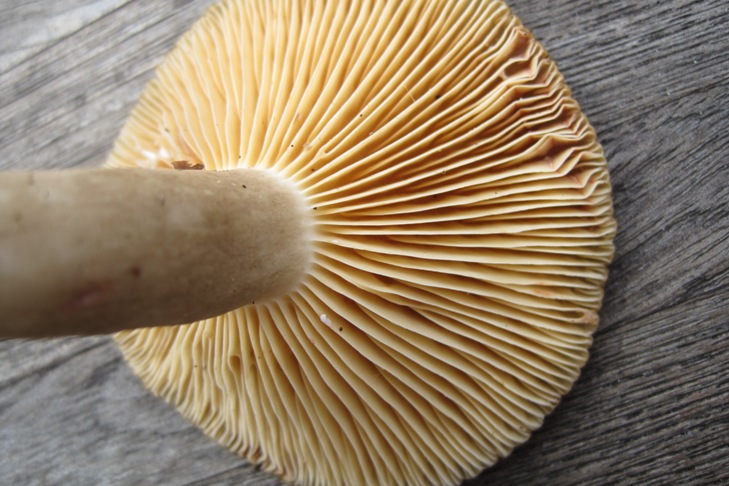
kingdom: Fungi
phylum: Basidiomycota
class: Agaricomycetes
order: Russulales
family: Russulaceae
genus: Lactarius
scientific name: Lactarius romagnesii
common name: fjernbladet mælkehat
